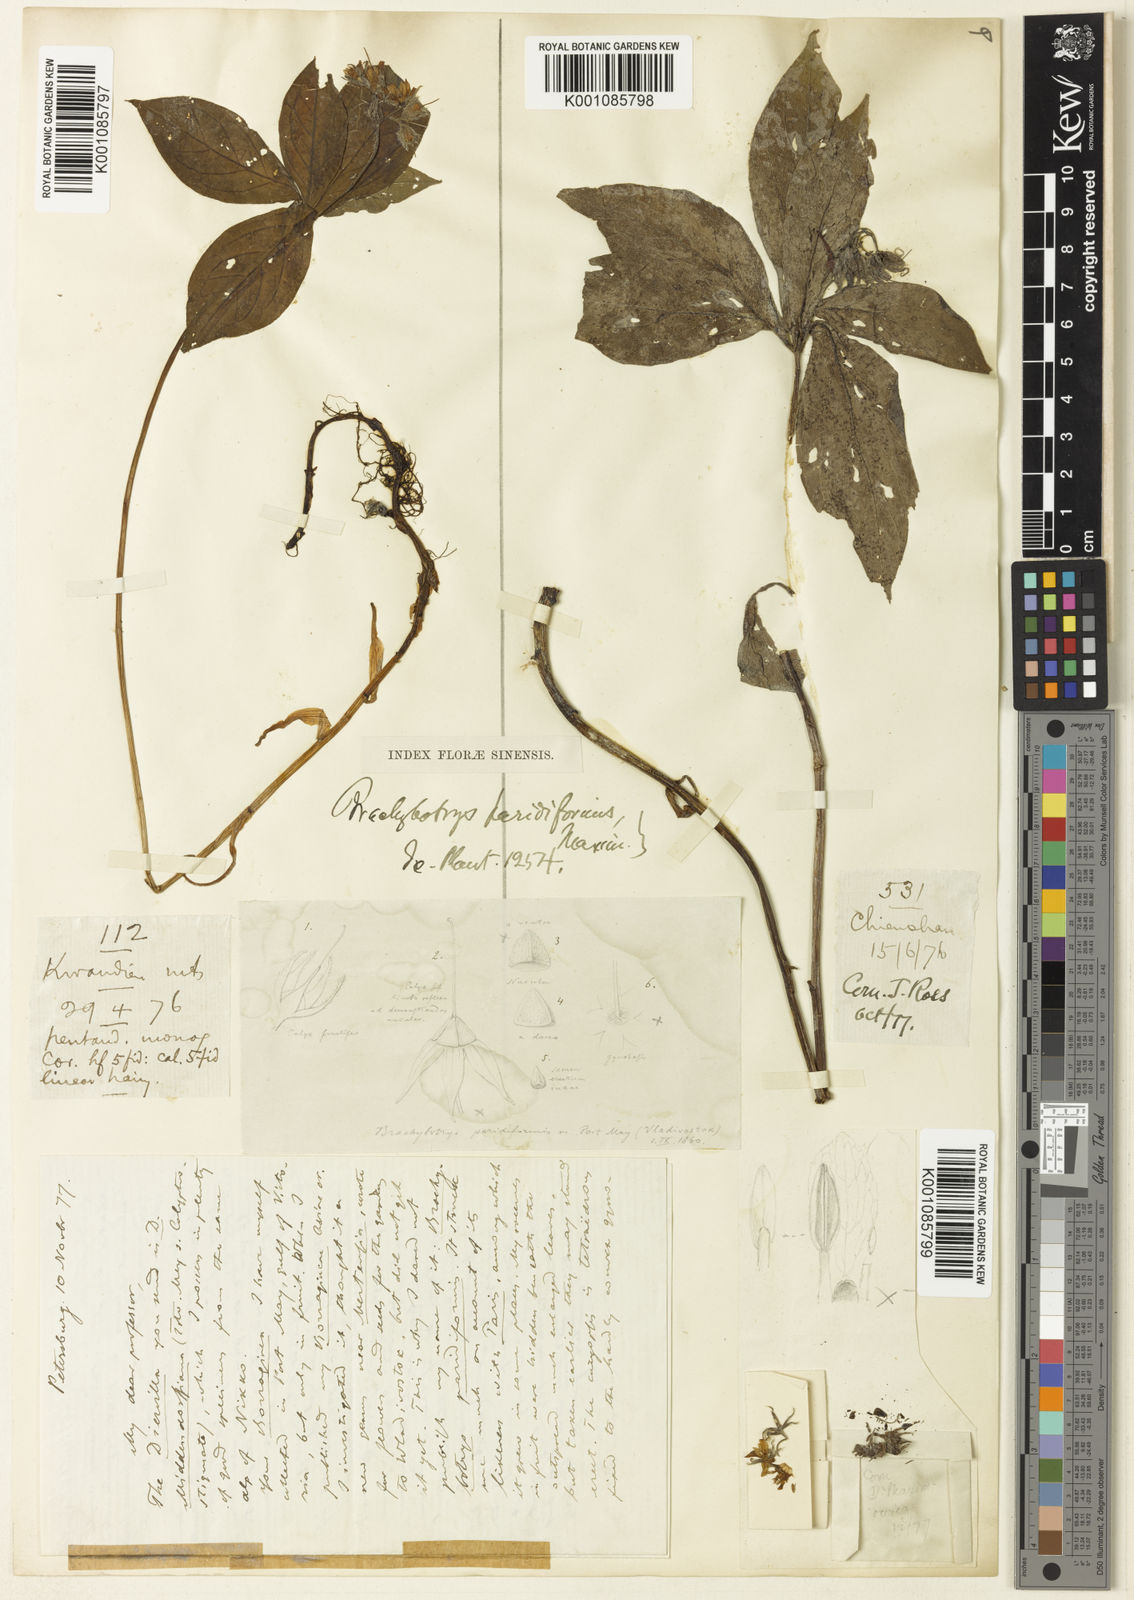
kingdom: Plantae
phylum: Tracheophyta
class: Magnoliopsida
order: Boraginales
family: Boraginaceae
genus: Brachybotrys
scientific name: Brachybotrys paridiformis
